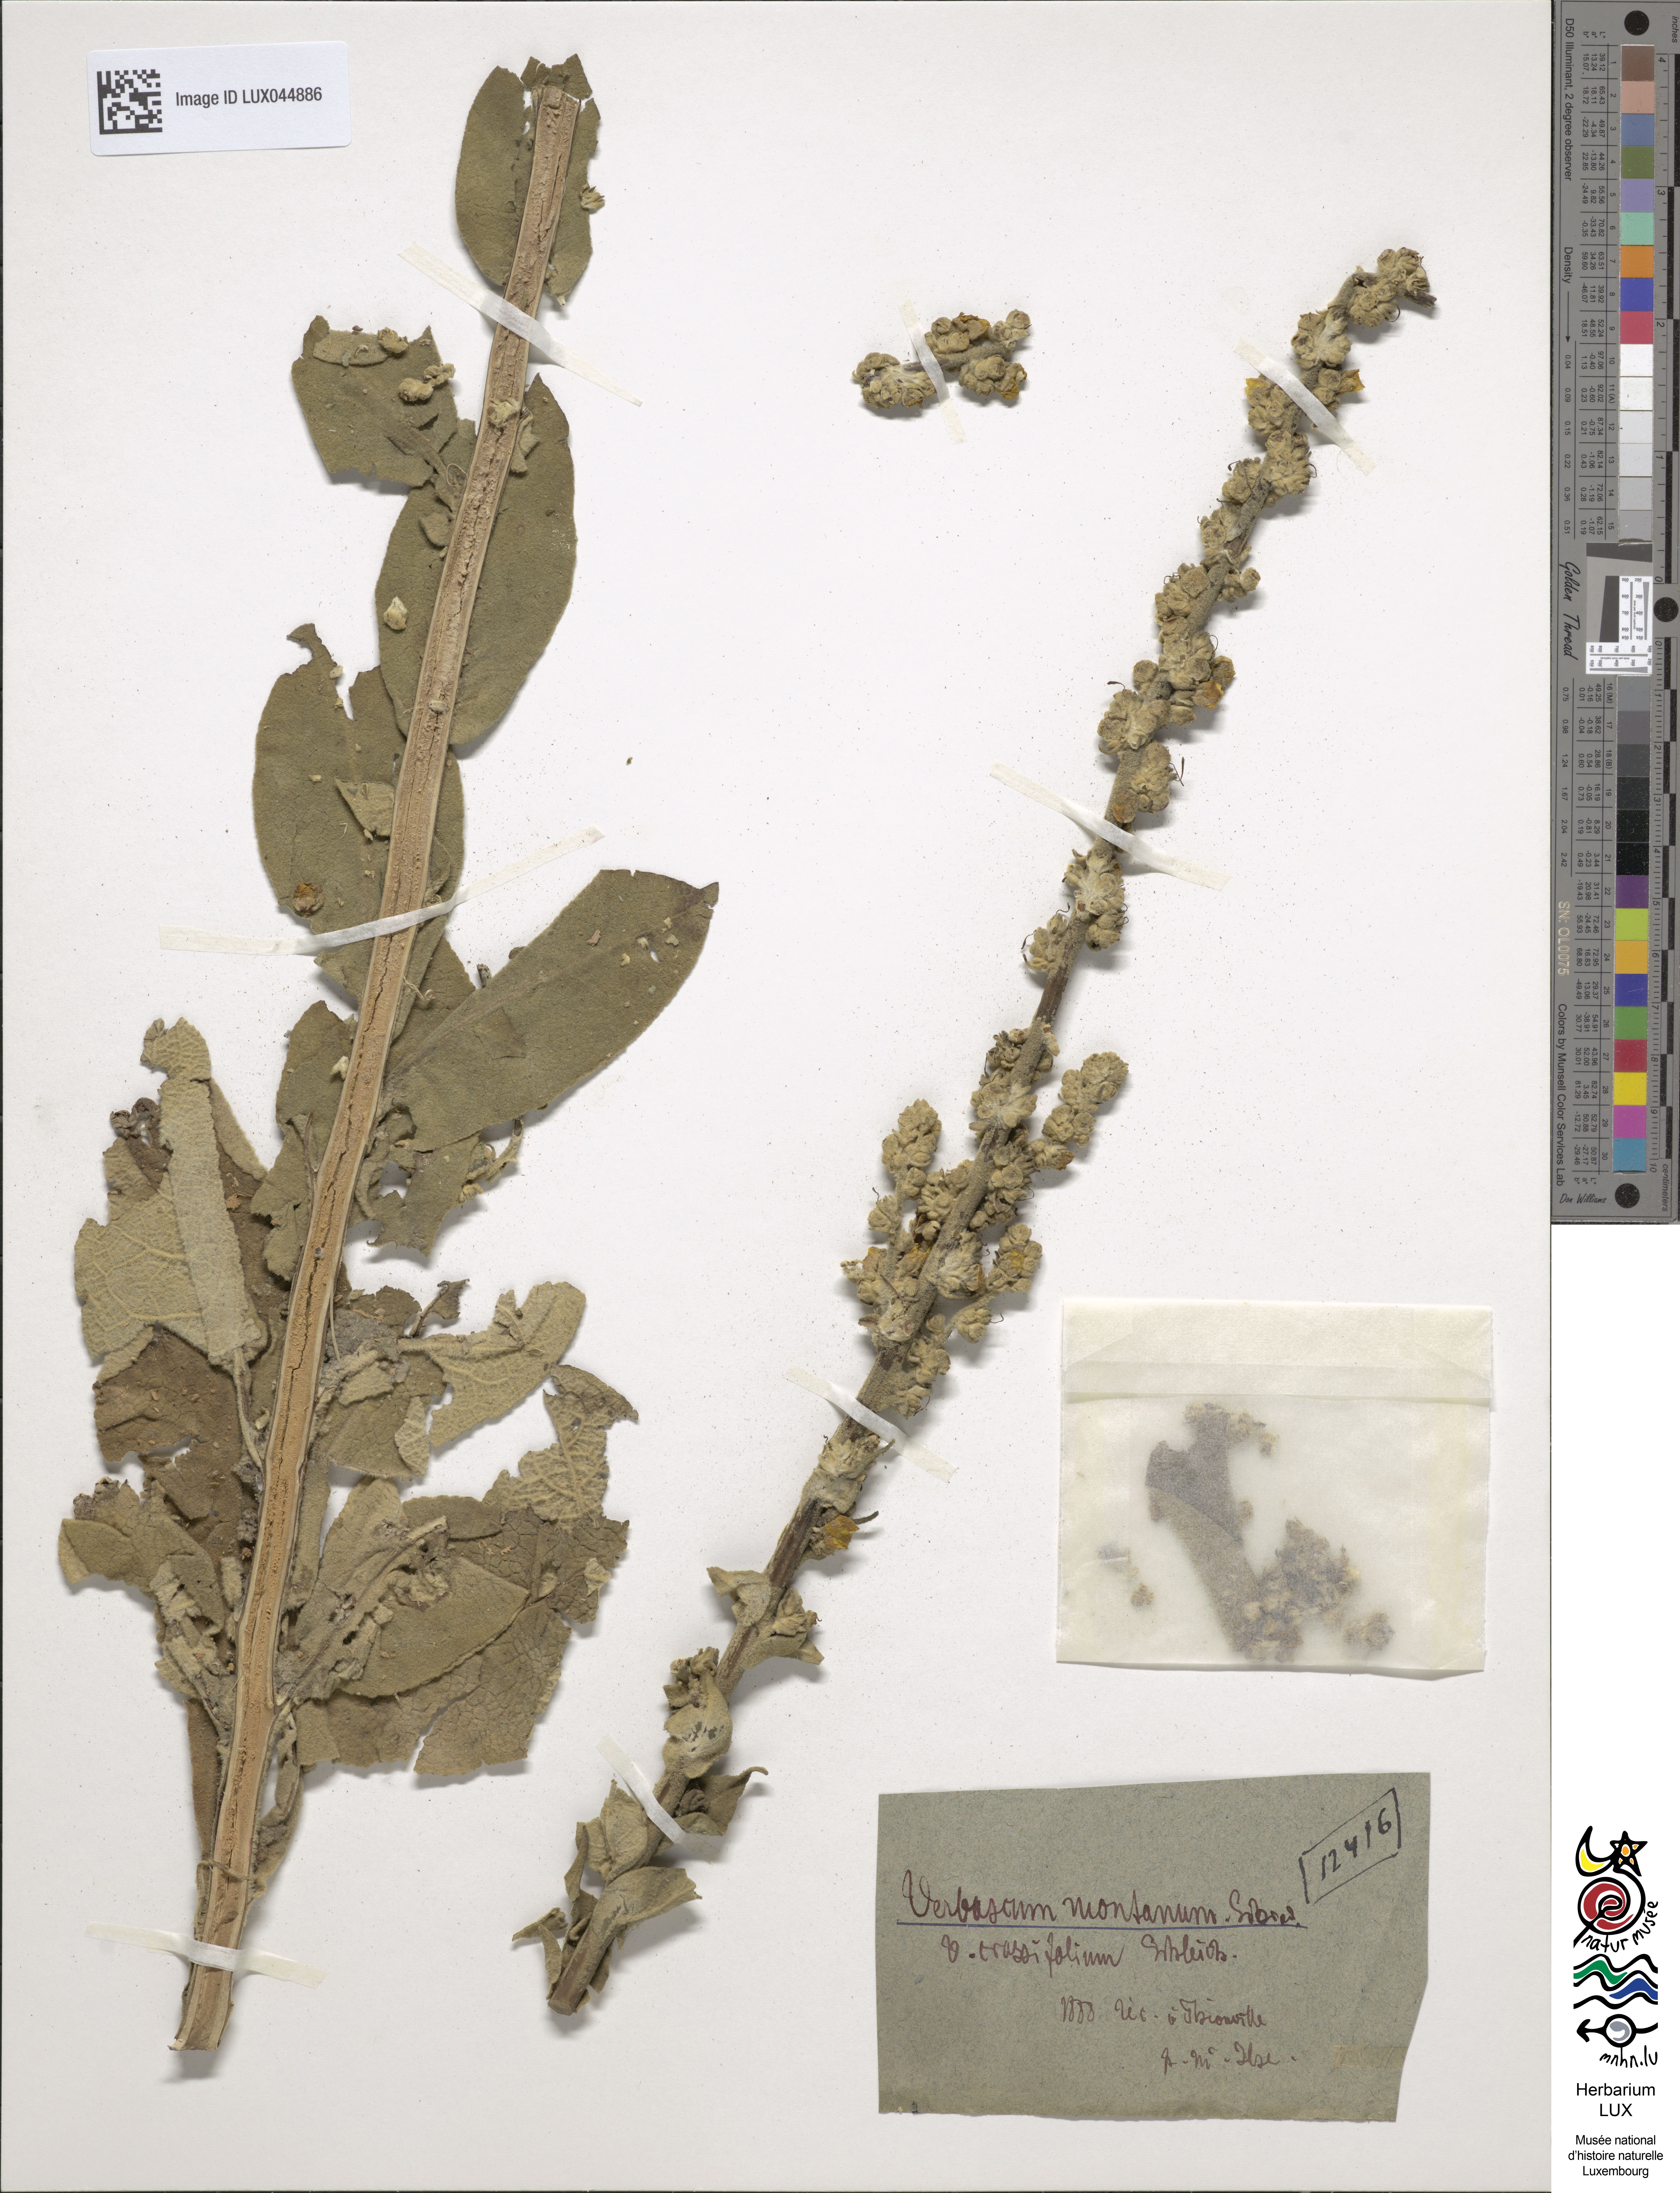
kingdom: Plantae
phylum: Tracheophyta
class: Magnoliopsida
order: Lamiales
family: Scrophulariaceae
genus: Verbascum
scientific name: Verbascum thapsus
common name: Common mullein
